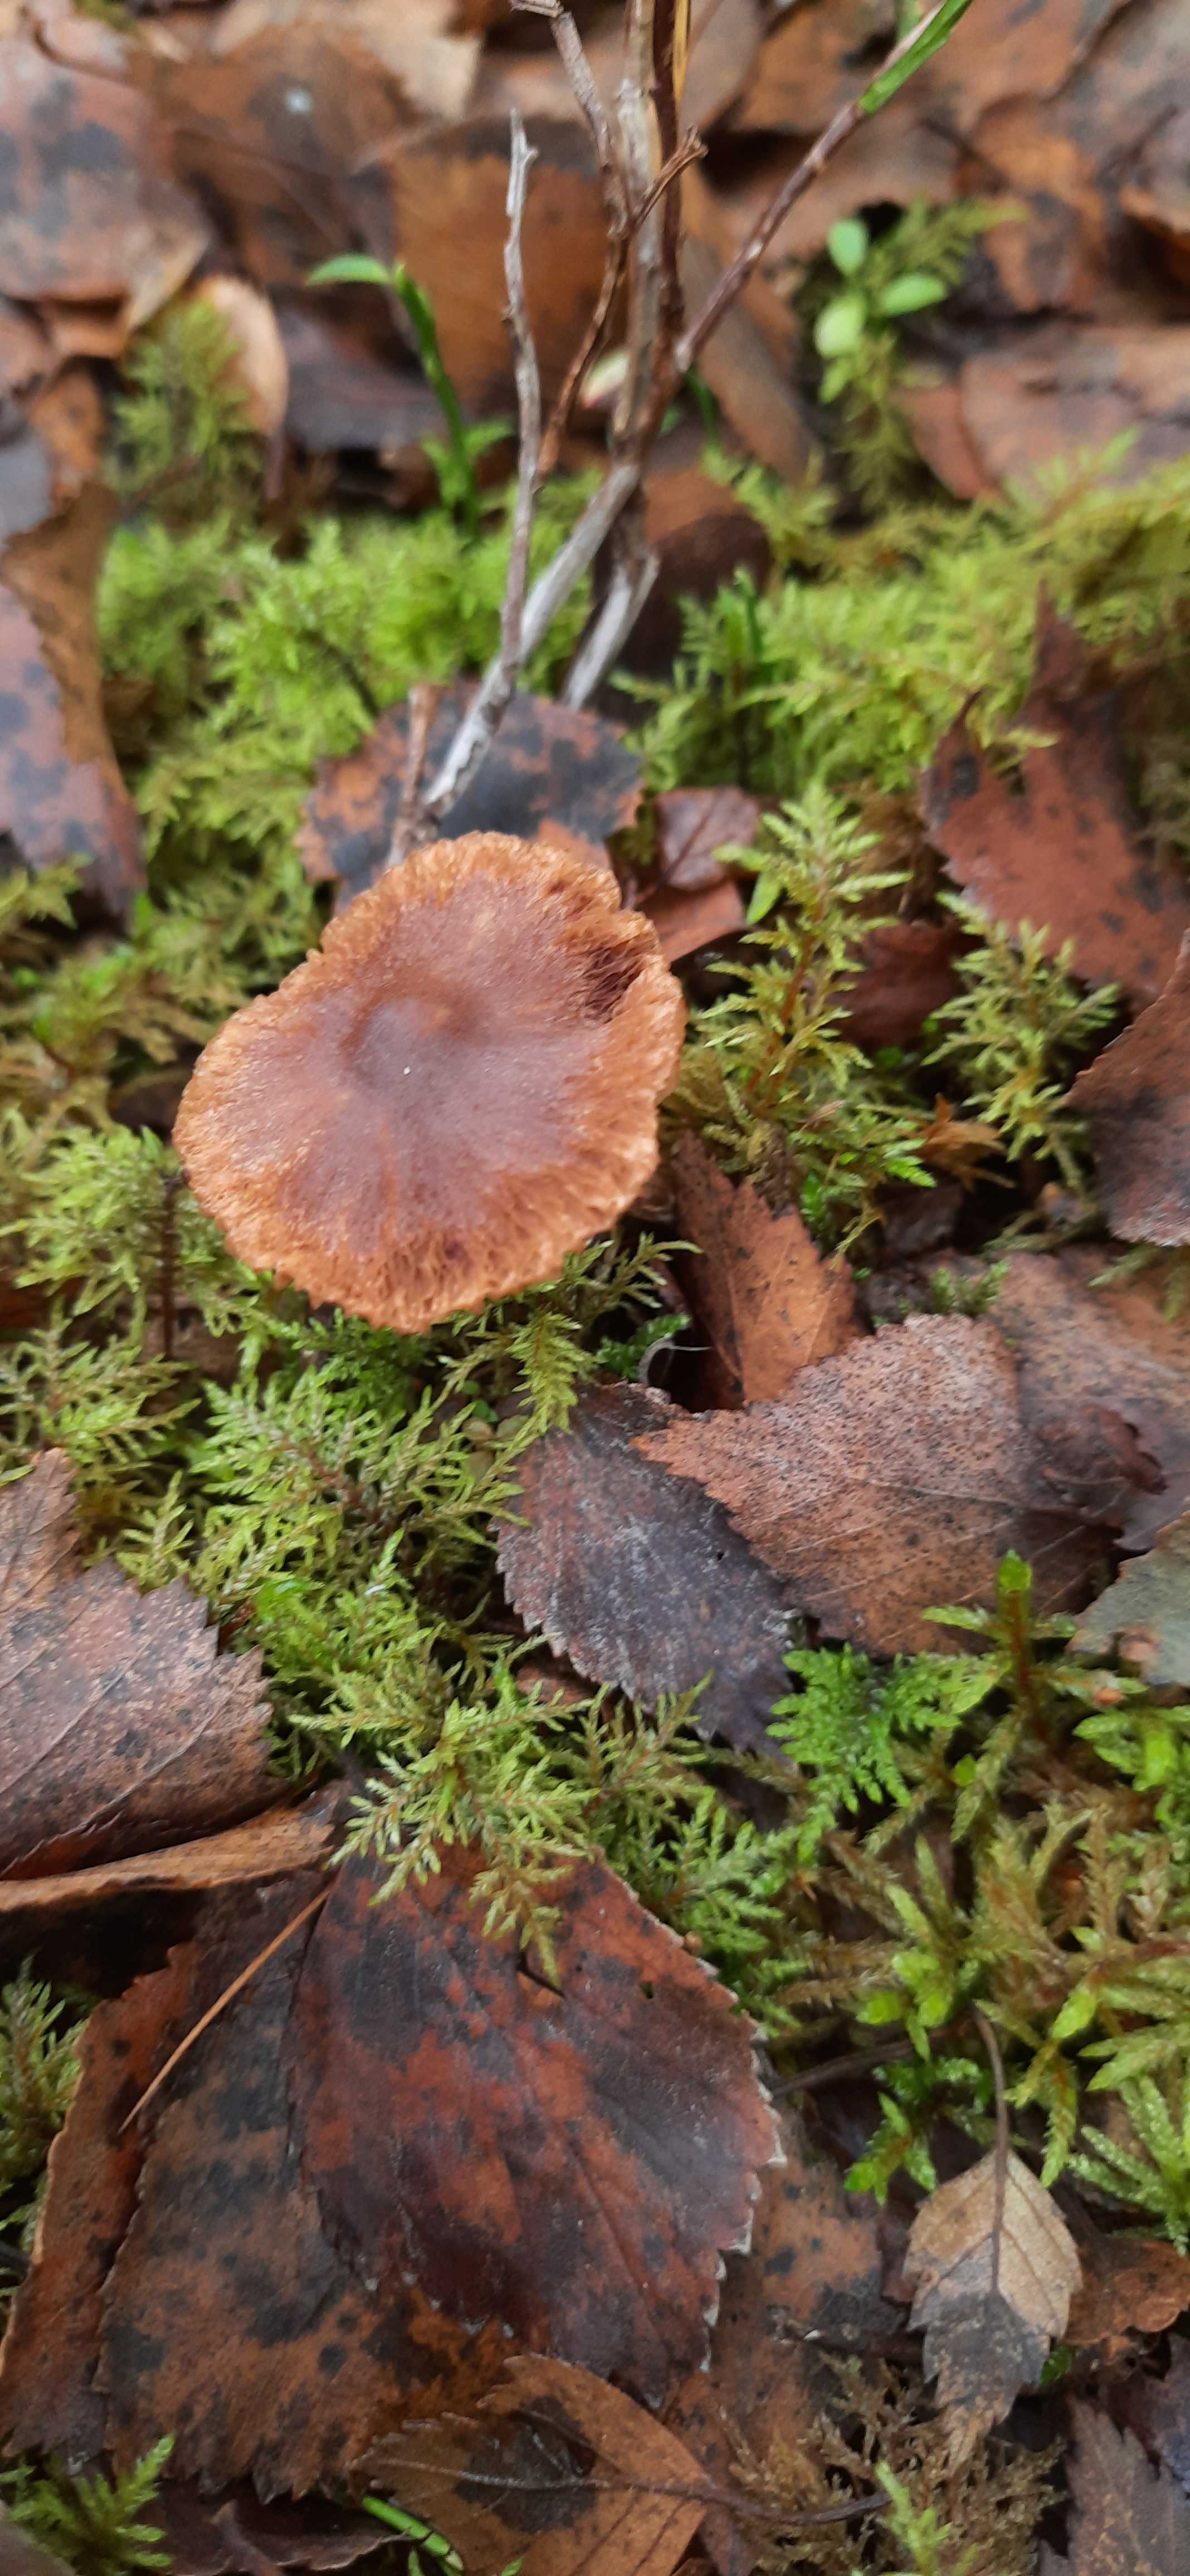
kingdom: Fungi
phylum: Basidiomycota
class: Agaricomycetes
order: Agaricales
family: Cortinariaceae
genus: Cortinarius
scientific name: Cortinarius
